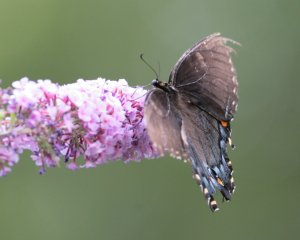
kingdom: Animalia
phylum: Arthropoda
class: Insecta
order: Lepidoptera
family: Papilionidae
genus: Pterourus
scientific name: Pterourus glaucus
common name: Eastern Tiger Swallowtail
